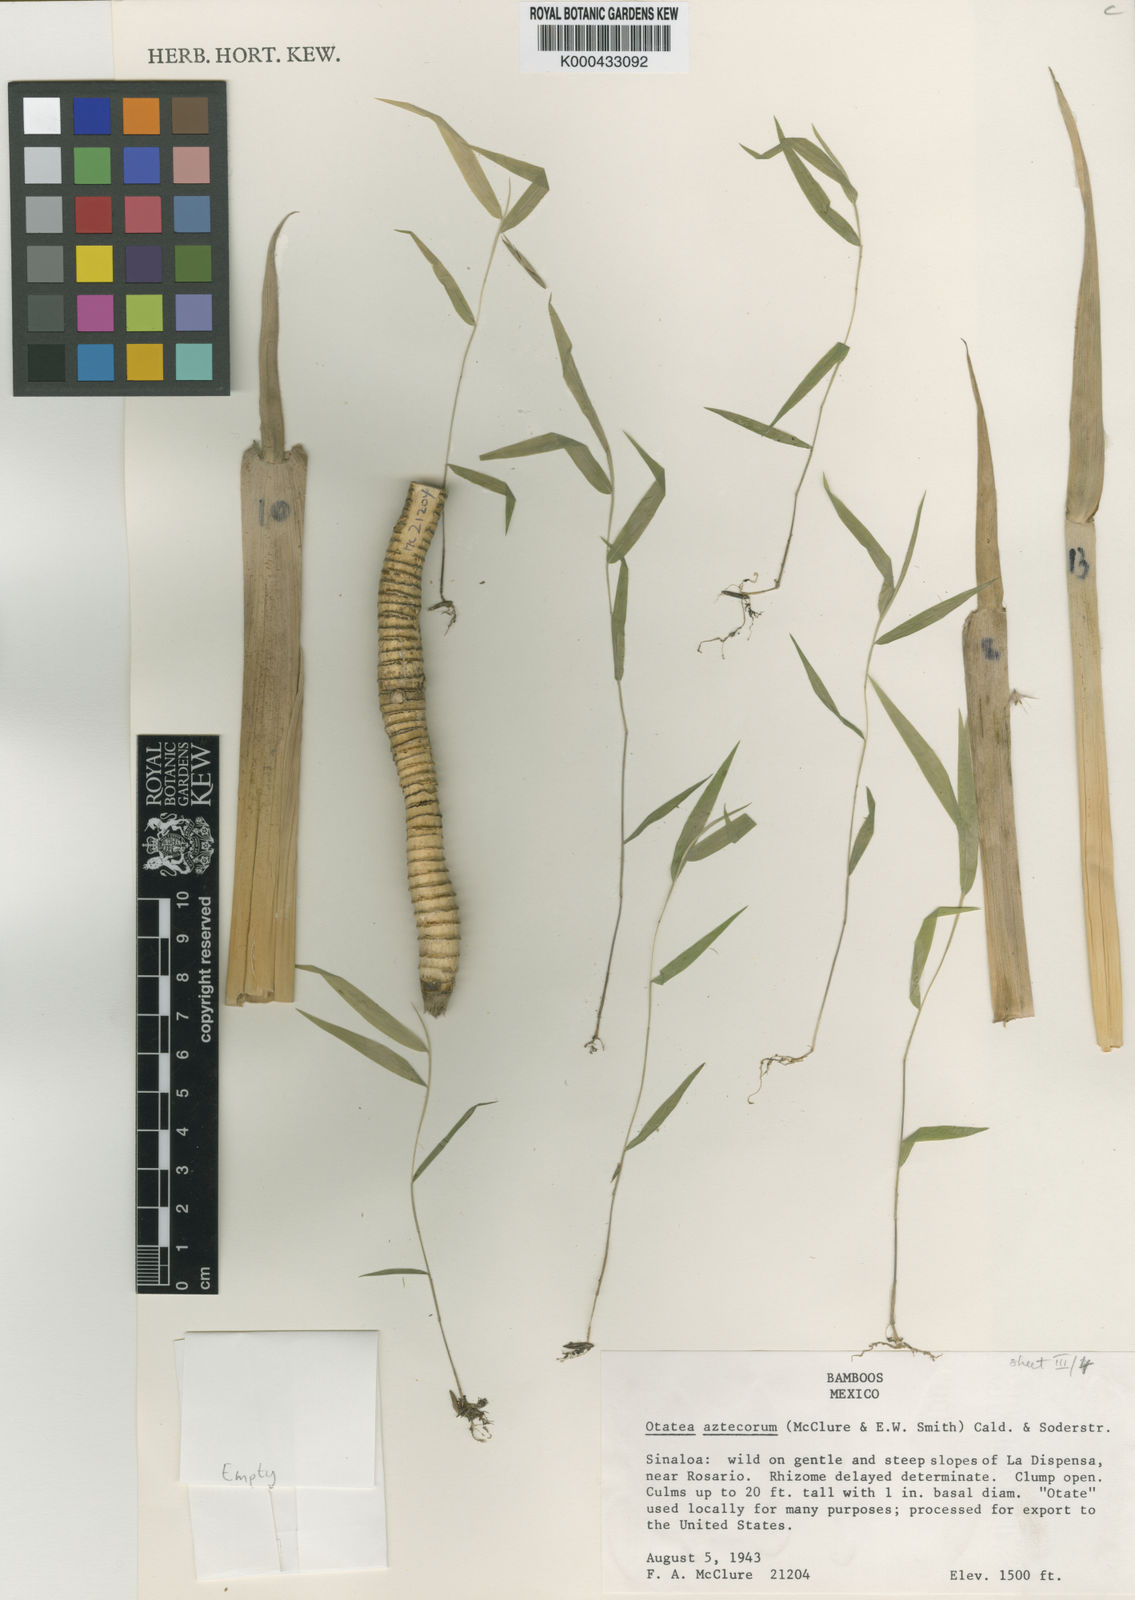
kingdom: Plantae
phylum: Tracheophyta
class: Liliopsida
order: Poales
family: Poaceae
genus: Otatea
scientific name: Otatea acuminata
